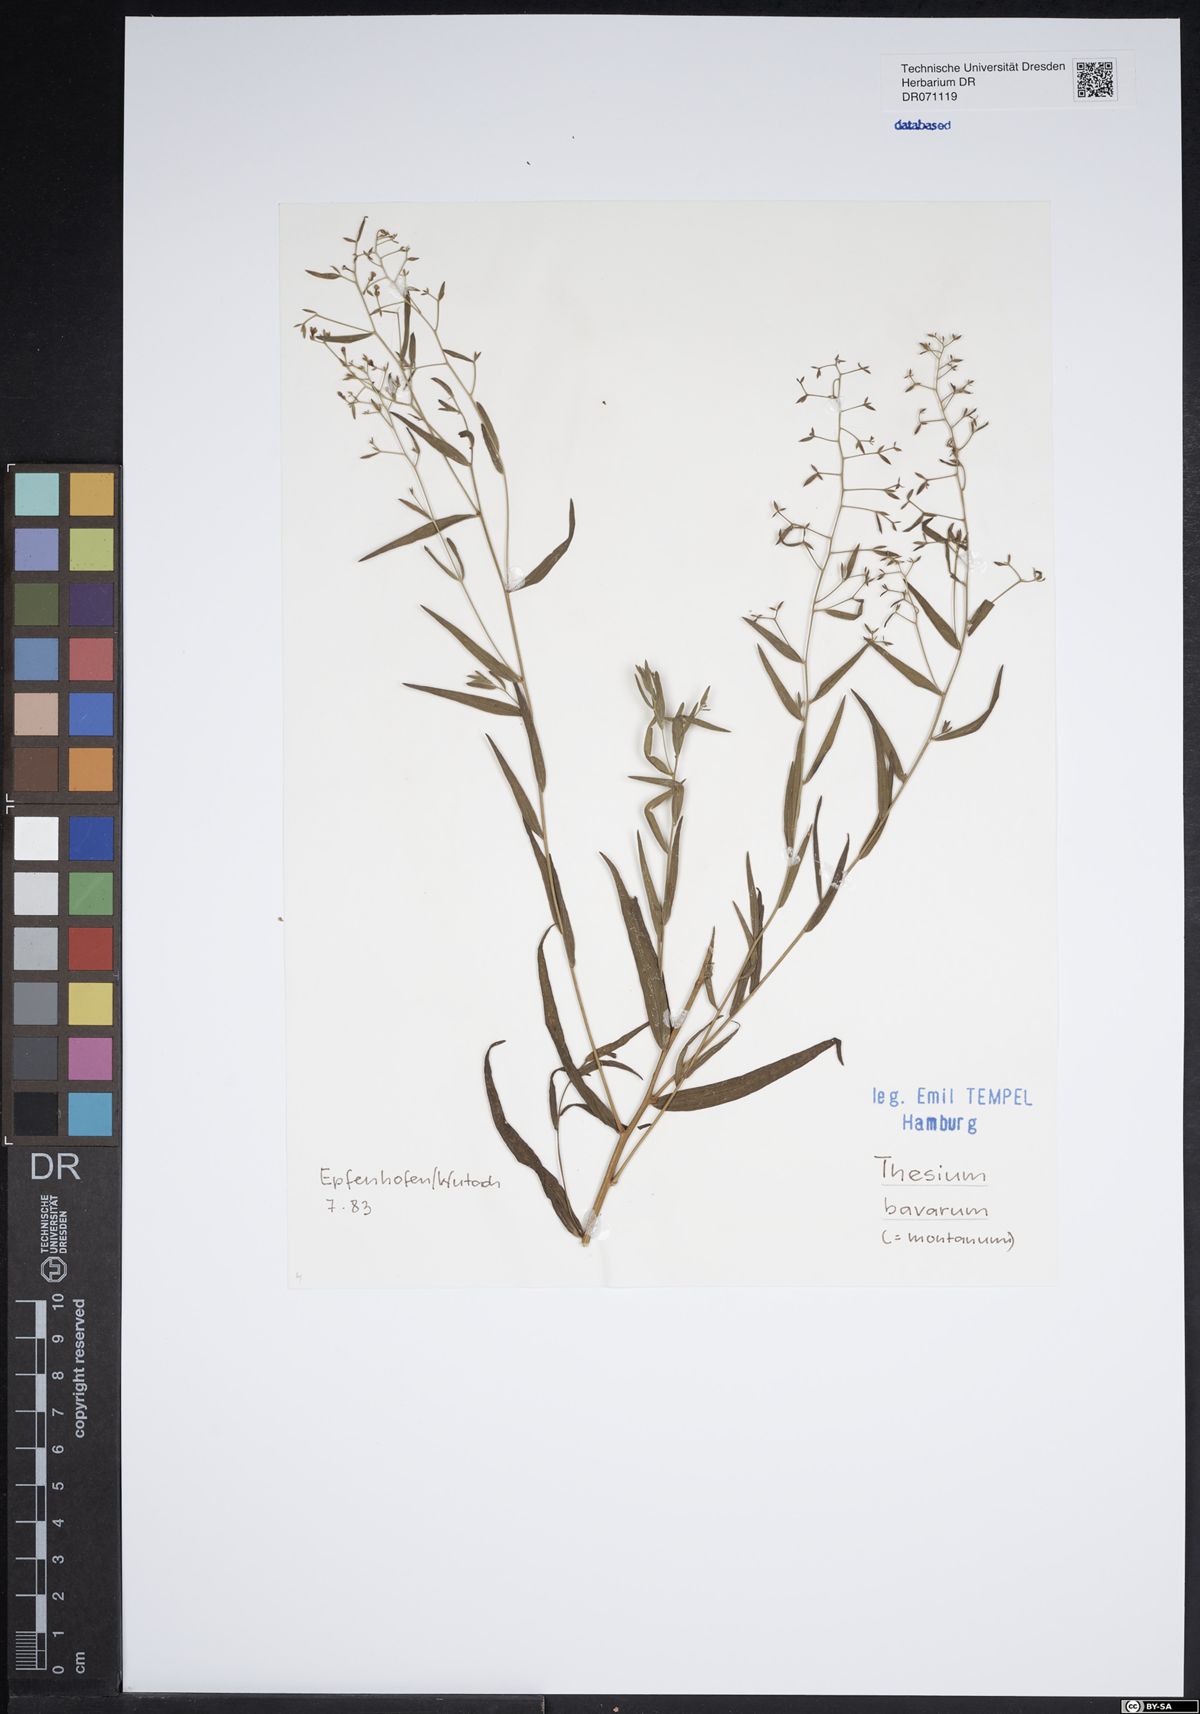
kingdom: Plantae
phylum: Tracheophyta
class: Magnoliopsida
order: Santalales
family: Thesiaceae
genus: Thesium
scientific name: Thesium bavarum
